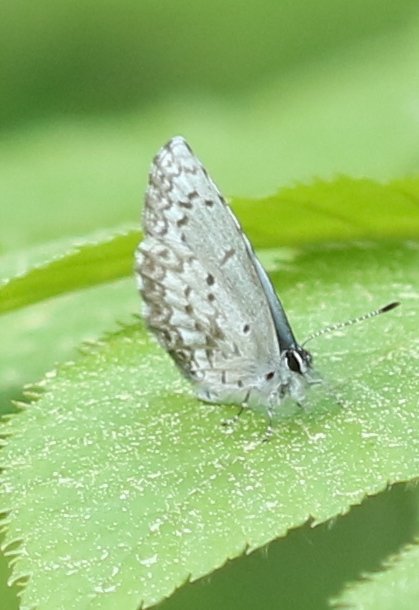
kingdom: Animalia
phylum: Arthropoda
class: Insecta
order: Lepidoptera
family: Lycaenidae
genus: Celastrina
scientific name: Celastrina lucia
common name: Northern Spring Azure
